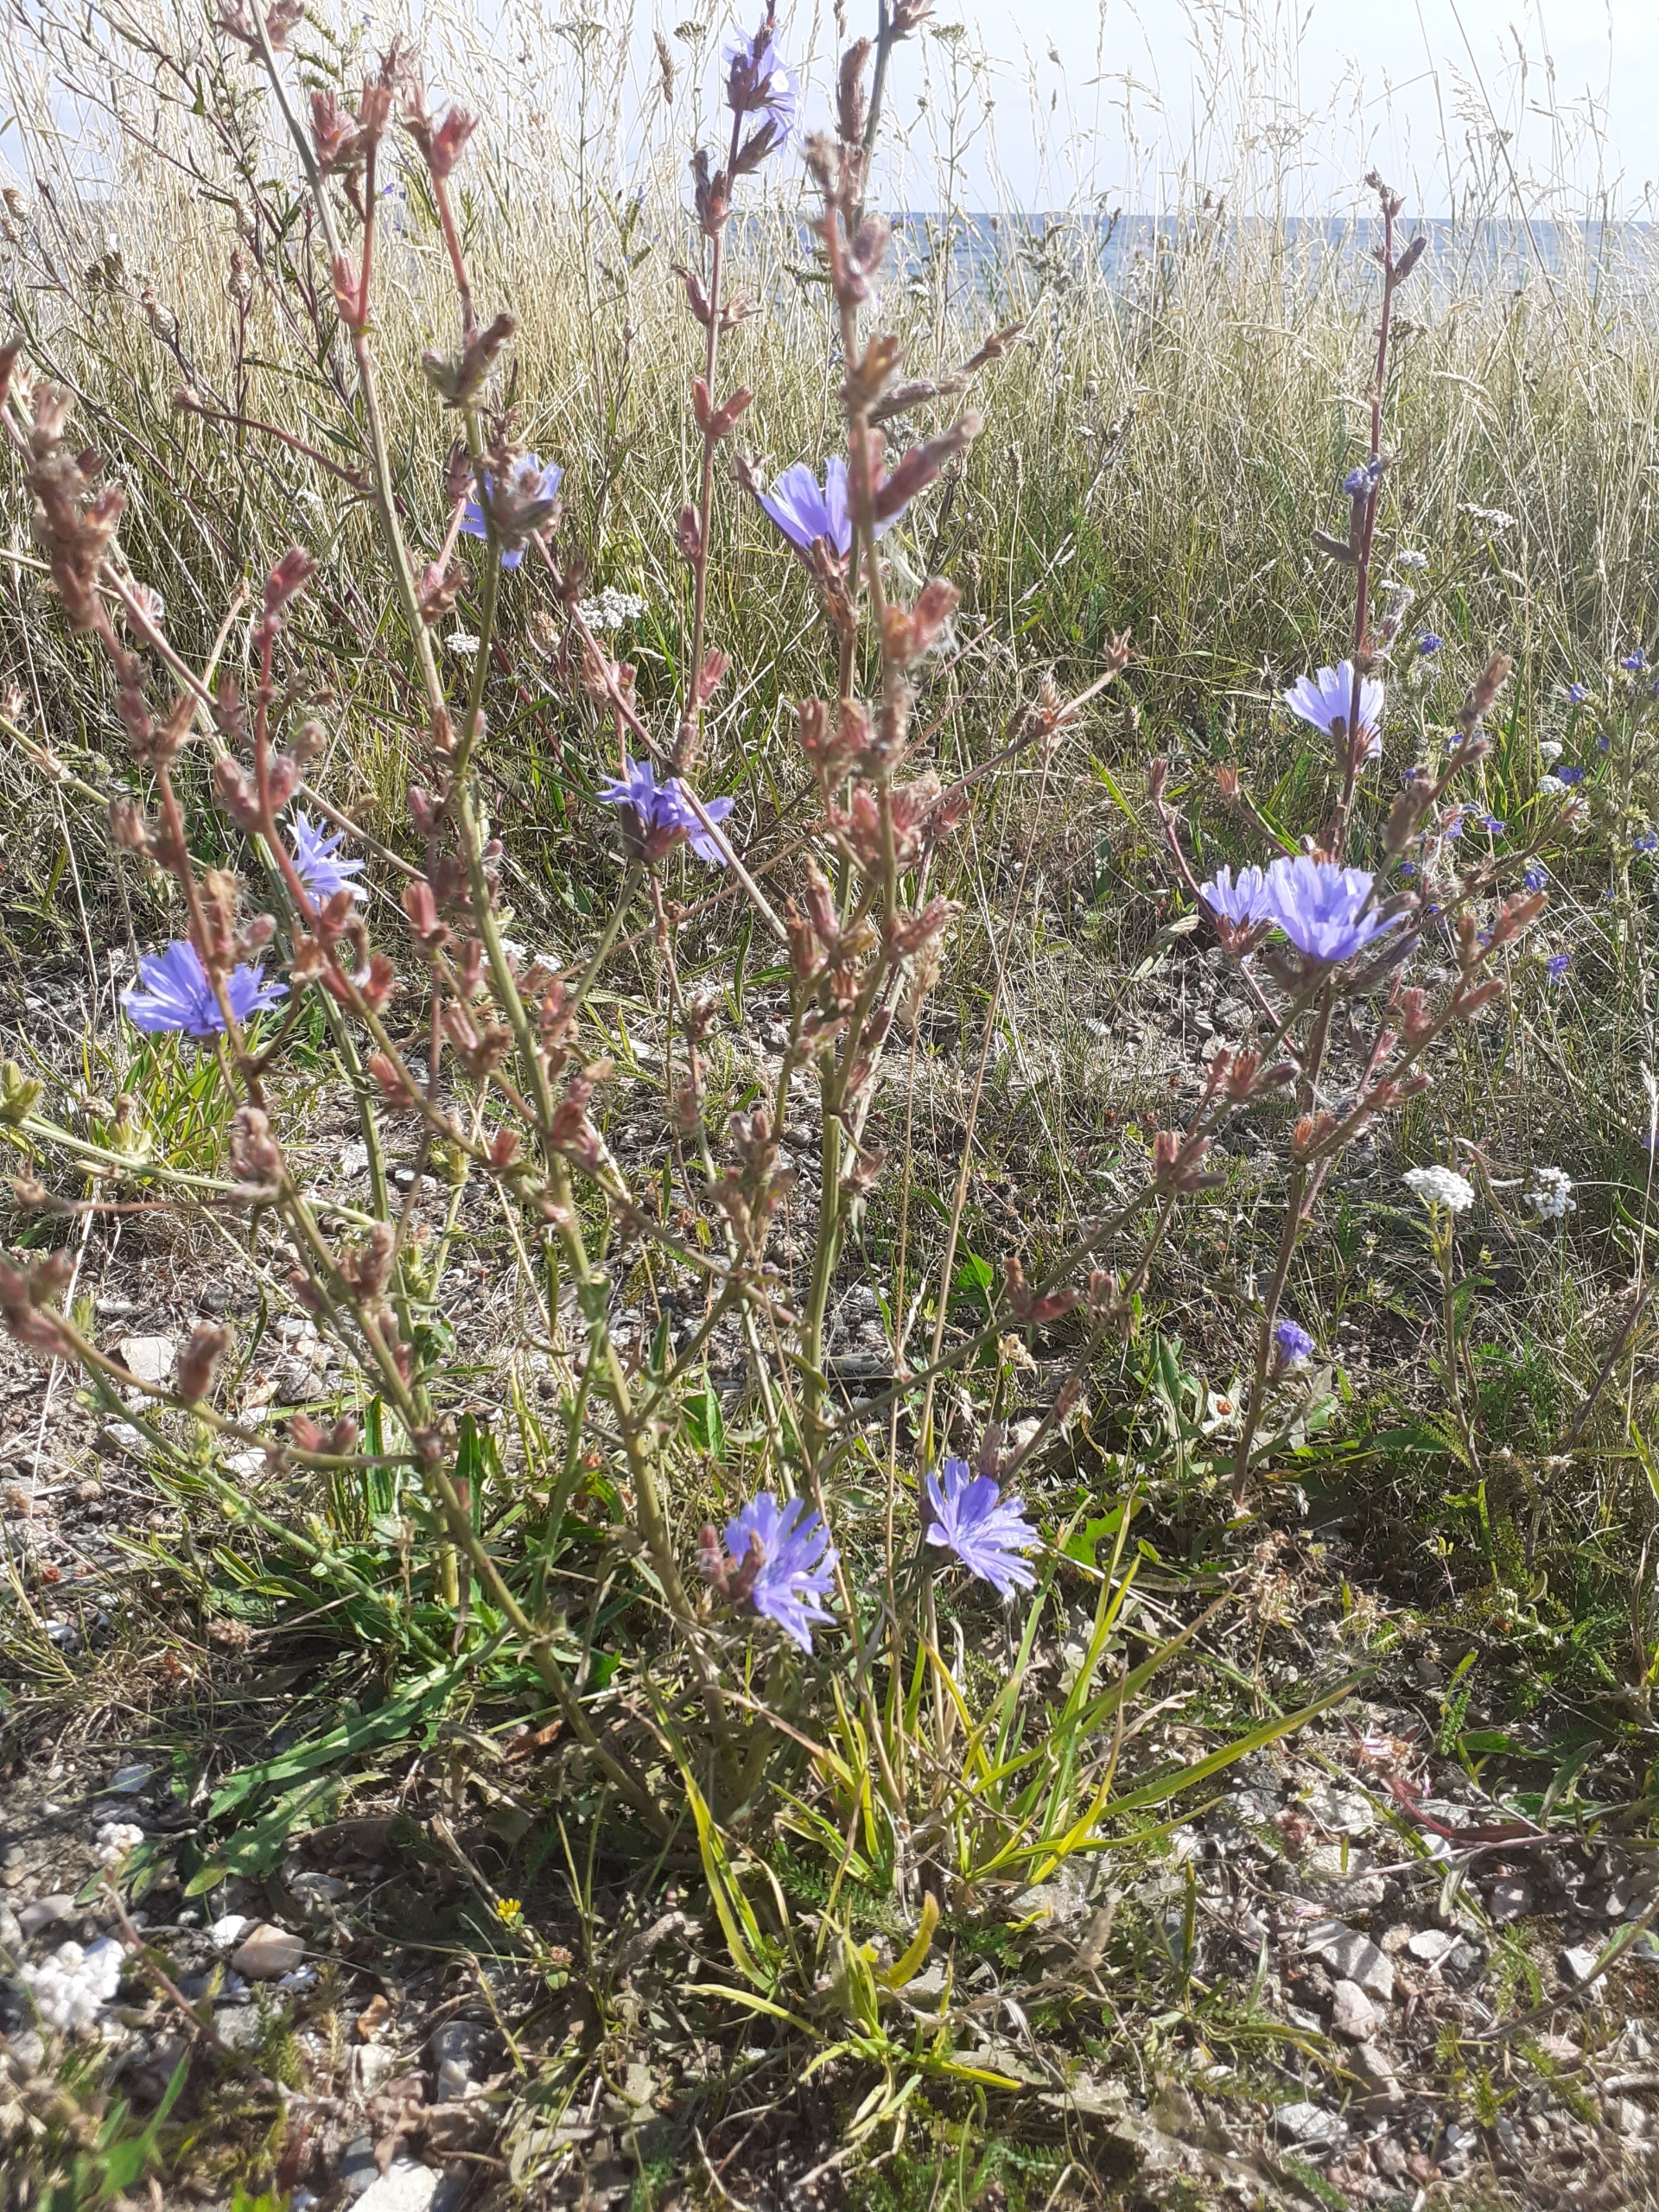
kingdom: Plantae
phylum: Tracheophyta
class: Magnoliopsida
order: Asterales
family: Asteraceae
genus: Cichorium
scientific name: Cichorium intybus
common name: Cikorie
